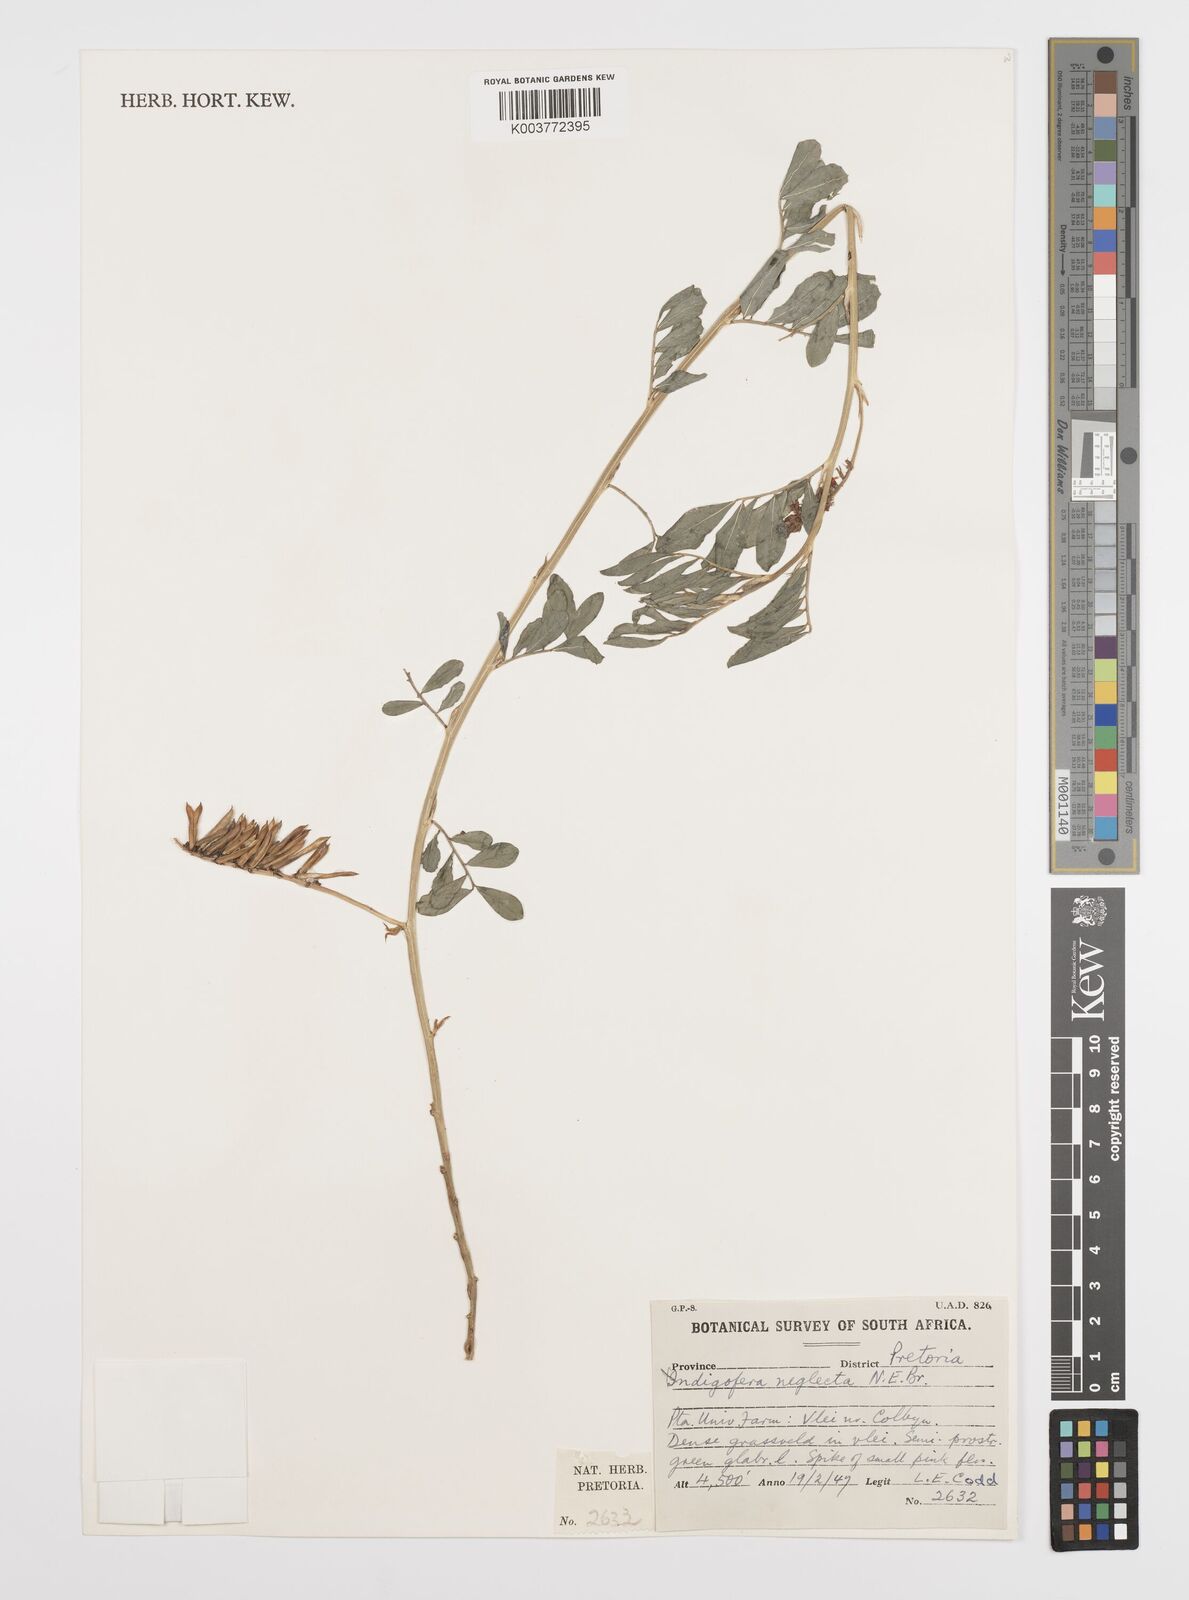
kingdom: Plantae
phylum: Tracheophyta
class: Magnoliopsida
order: Fabales
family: Fabaceae
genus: Indigofera
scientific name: Indigofera spicata
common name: Creeping indigo
